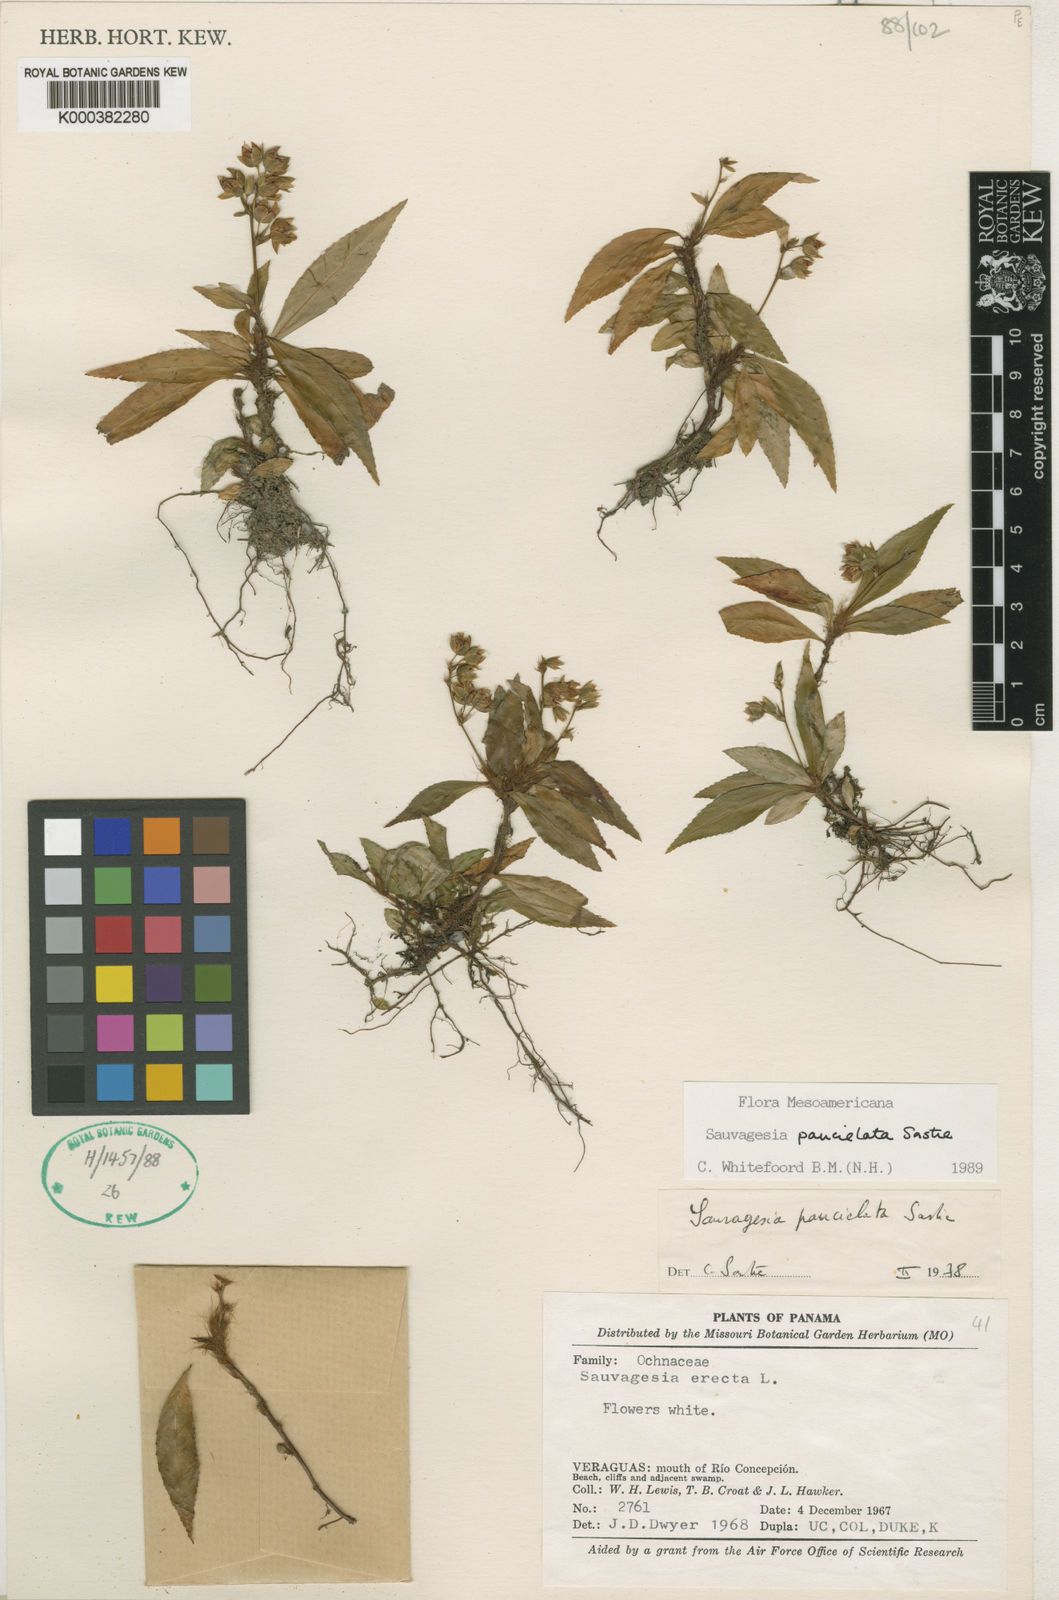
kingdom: Plantae
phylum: Tracheophyta
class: Magnoliopsida
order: Malpighiales
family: Ochnaceae
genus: Sauvagesia
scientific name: Sauvagesia paucielata
